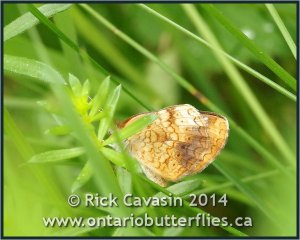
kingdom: Animalia
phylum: Arthropoda
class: Insecta
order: Lepidoptera
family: Nymphalidae
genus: Phyciodes
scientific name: Phyciodes tharos
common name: Northern Crescent
